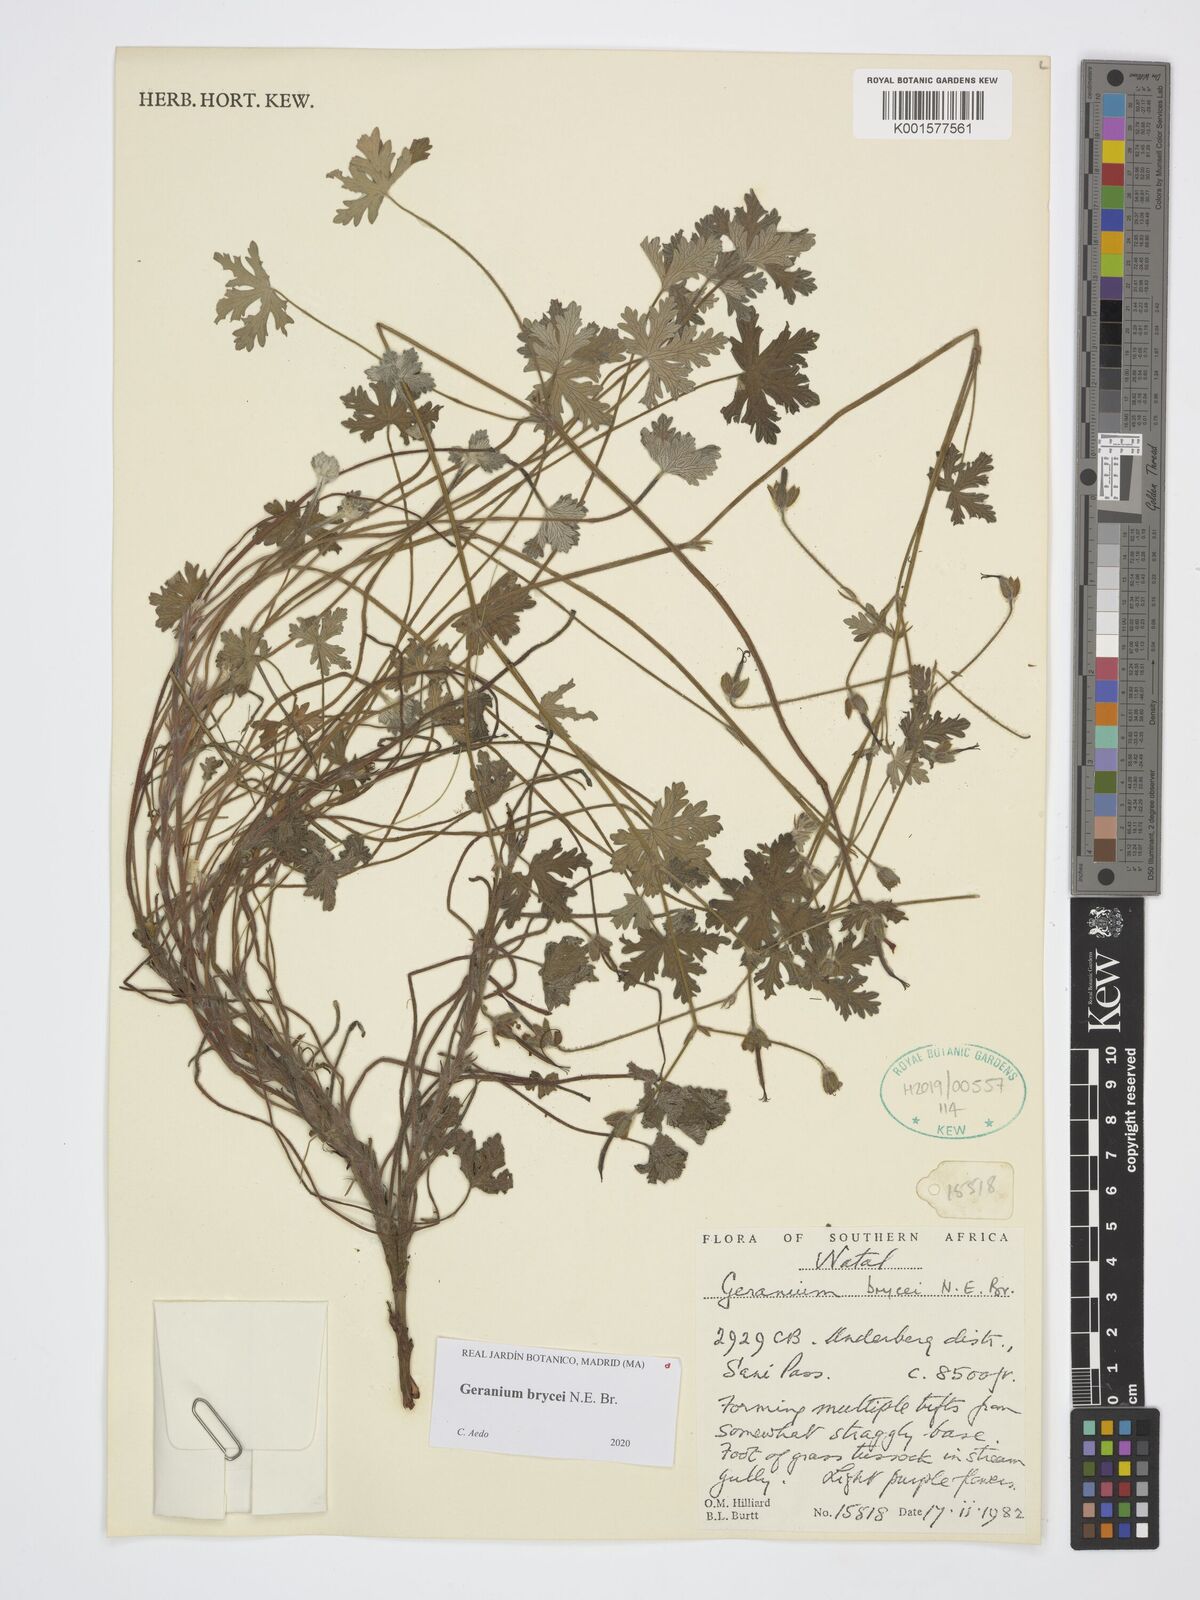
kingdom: Plantae
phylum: Tracheophyta
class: Magnoliopsida
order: Geraniales
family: Geraniaceae
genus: Geranium
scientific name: Geranium brycei
